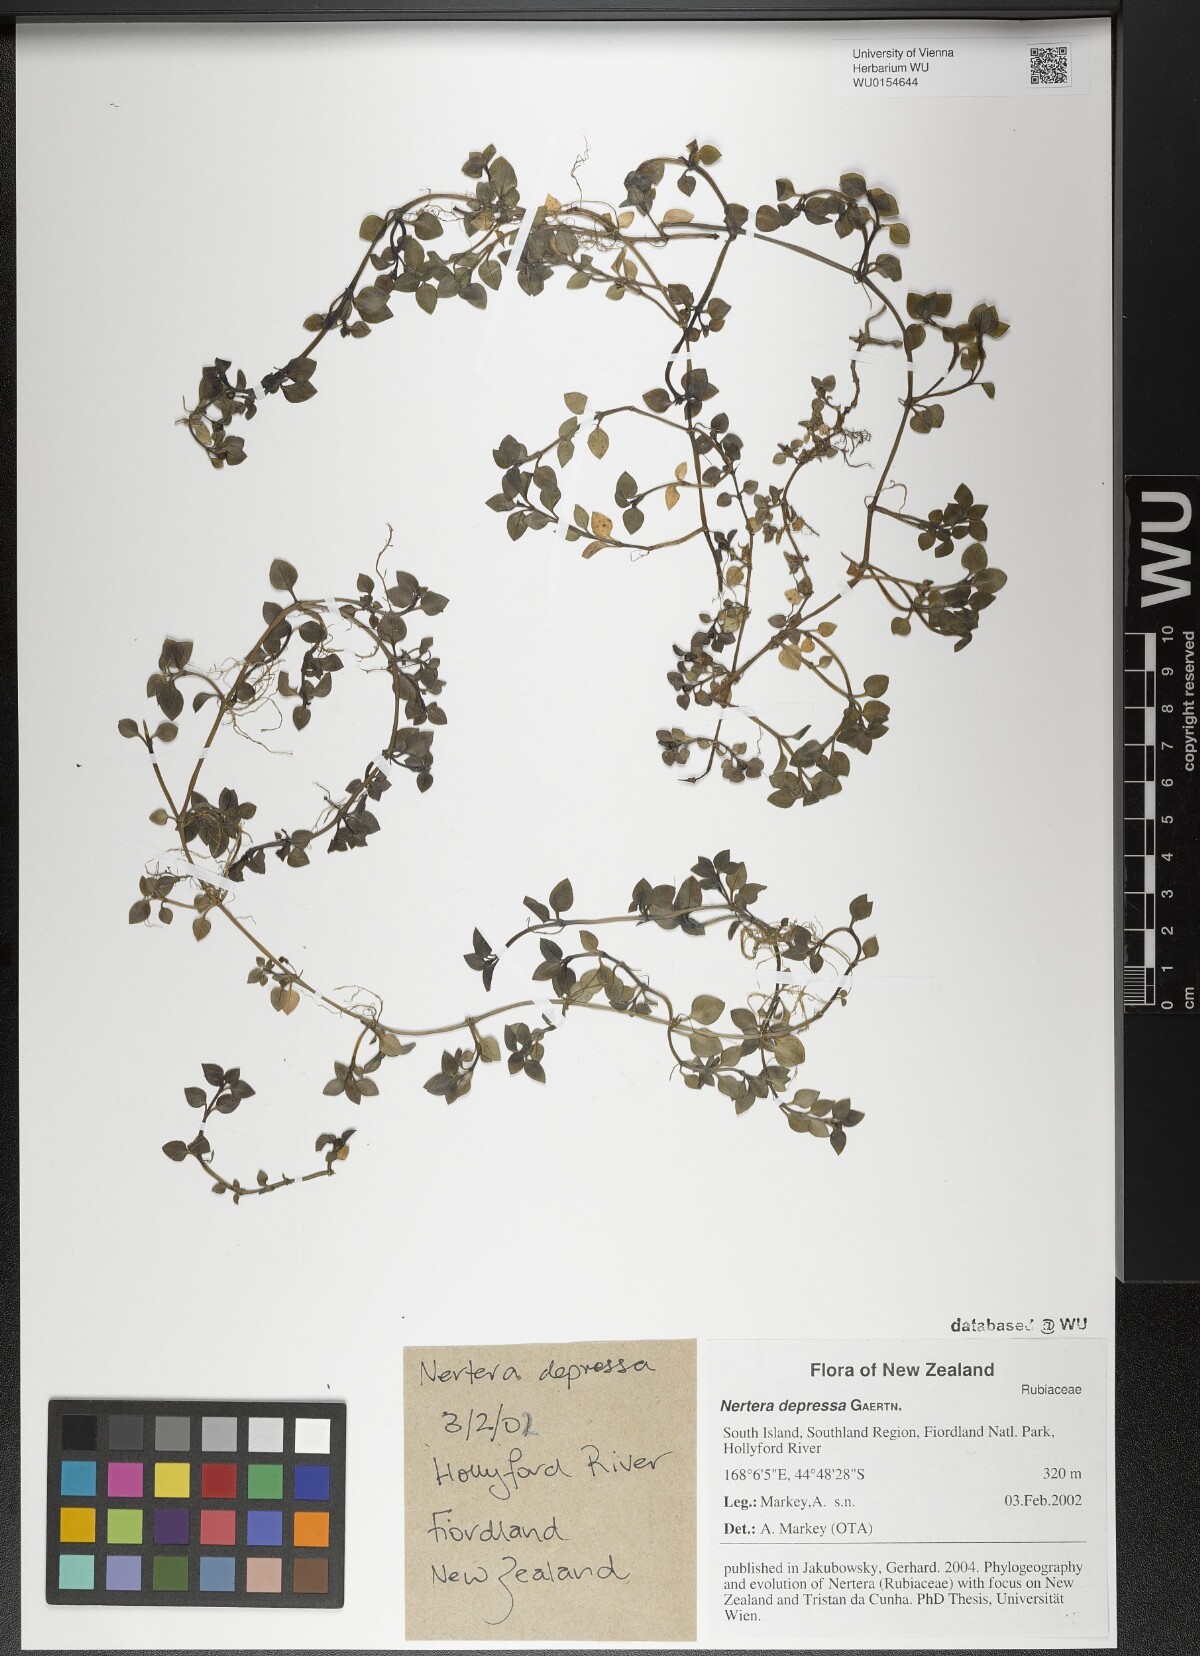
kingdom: Plantae
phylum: Tracheophyta
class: Magnoliopsida
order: Gentianales
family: Rubiaceae
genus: Nertera
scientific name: Nertera granadensis
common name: Beadplant
